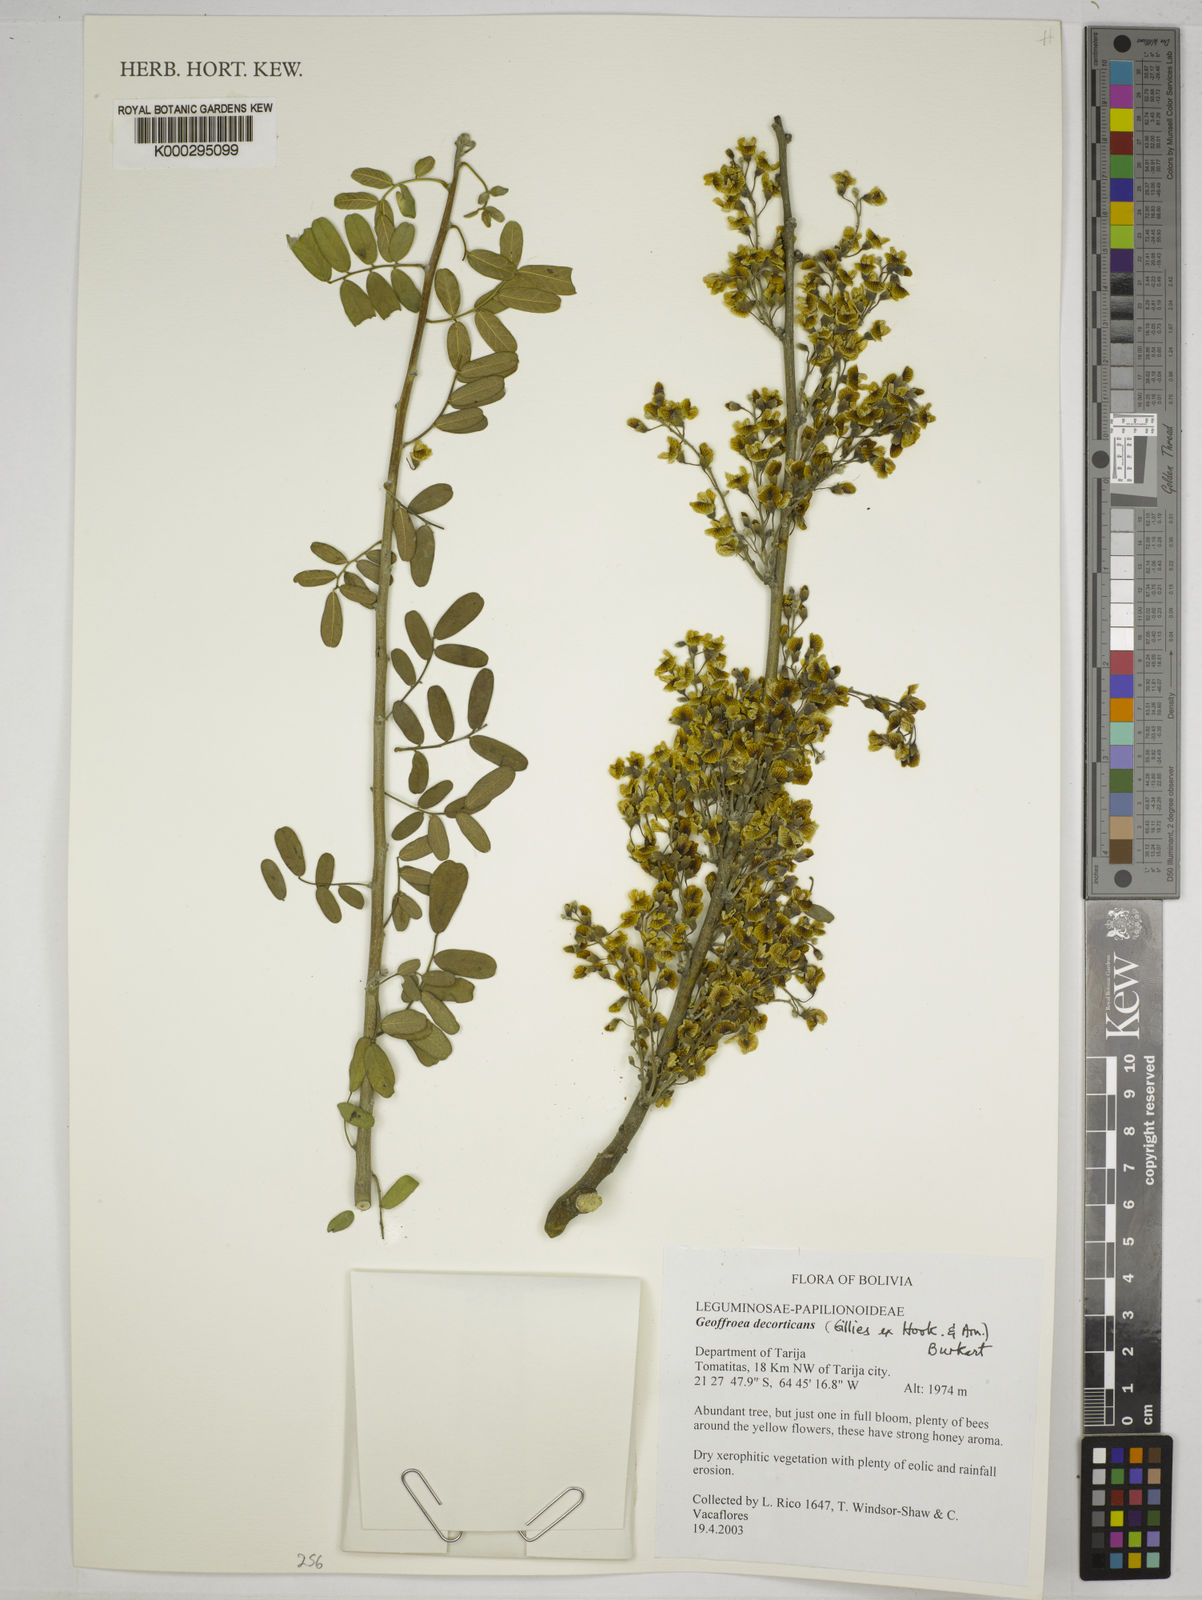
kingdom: Plantae
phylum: Tracheophyta
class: Magnoliopsida
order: Fabales
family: Fabaceae
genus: Geoffroea
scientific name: Geoffroea decorticans
